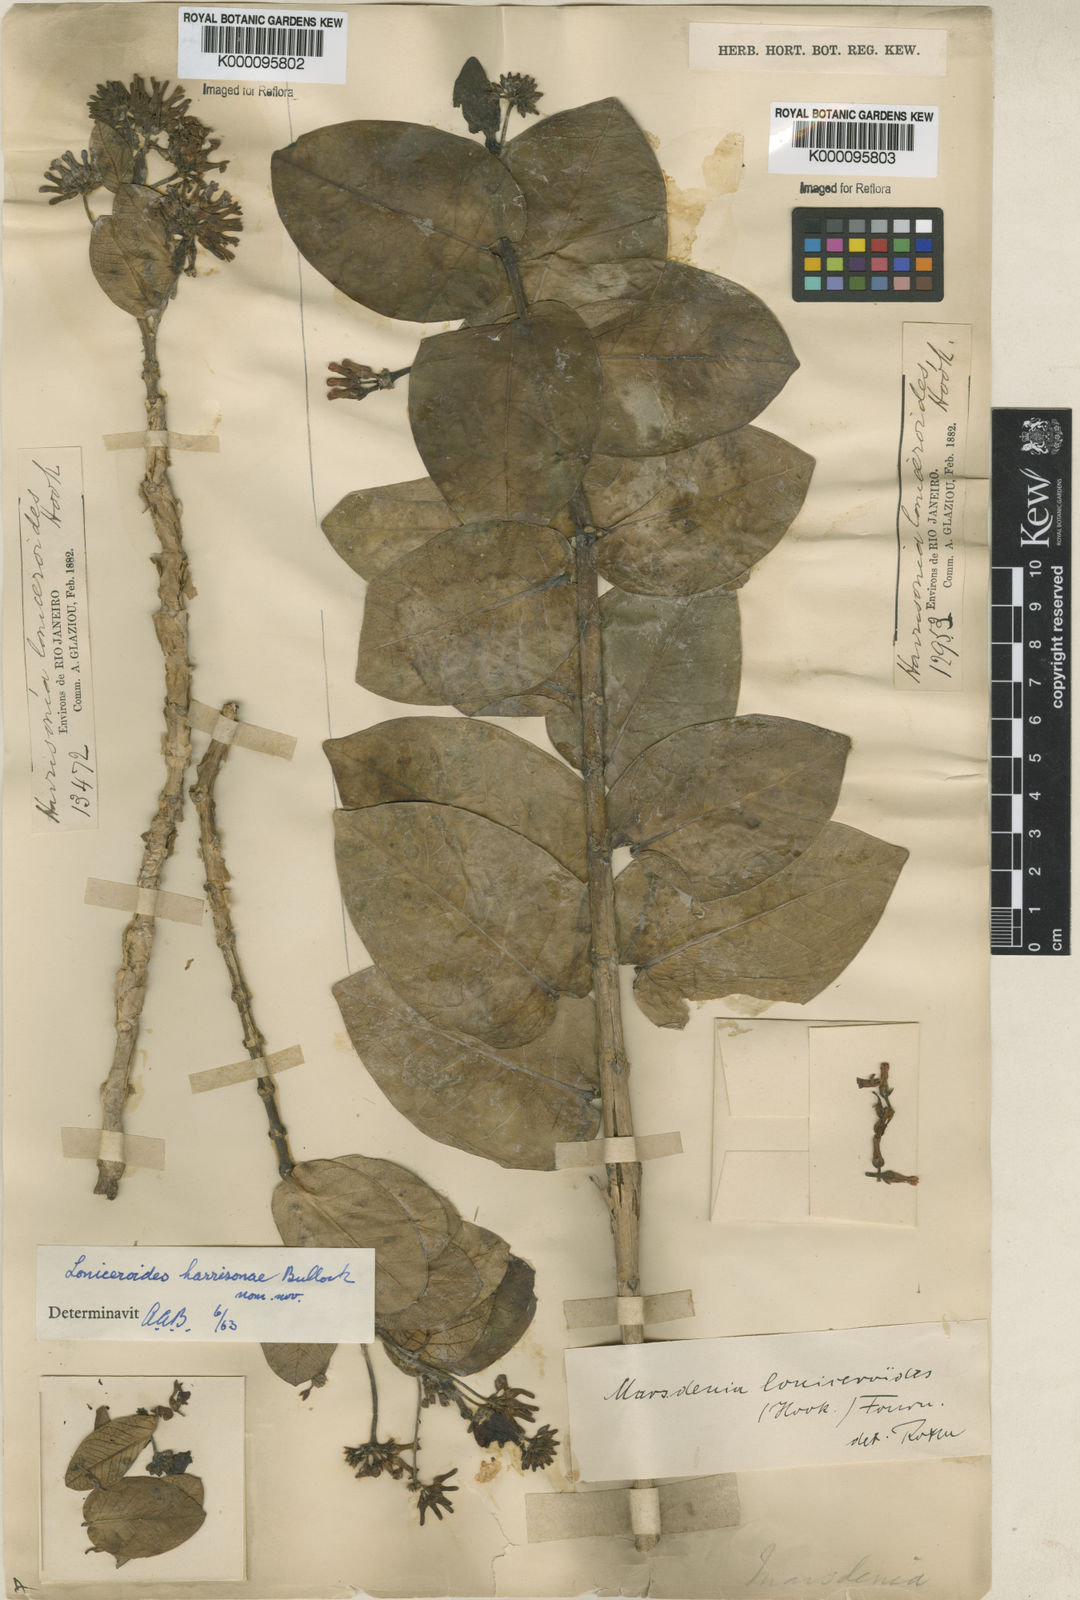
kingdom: Plantae
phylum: Tracheophyta
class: Magnoliopsida
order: Gentianales
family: Apocynaceae
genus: Ruehssia
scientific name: Ruehssia loniceroides
